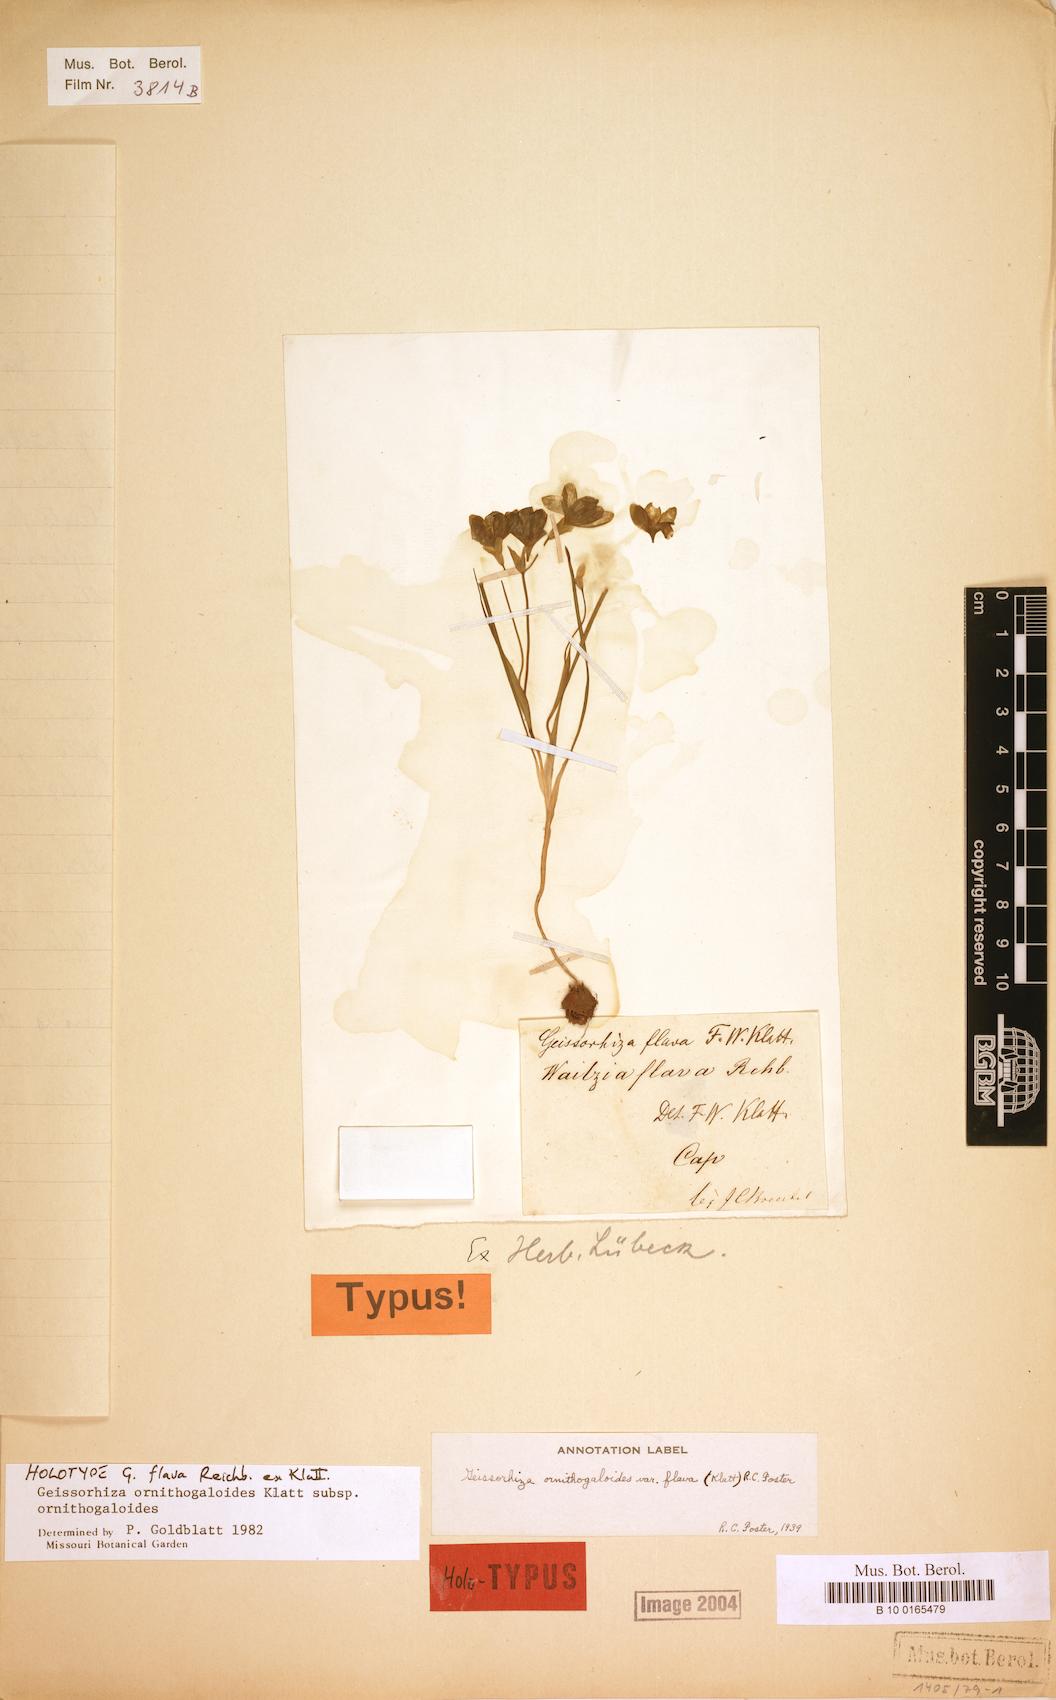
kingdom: Plantae
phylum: Tracheophyta
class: Liliopsida
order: Asparagales
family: Iridaceae
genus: Geissorhiza
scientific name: Geissorhiza ornithogaloides
